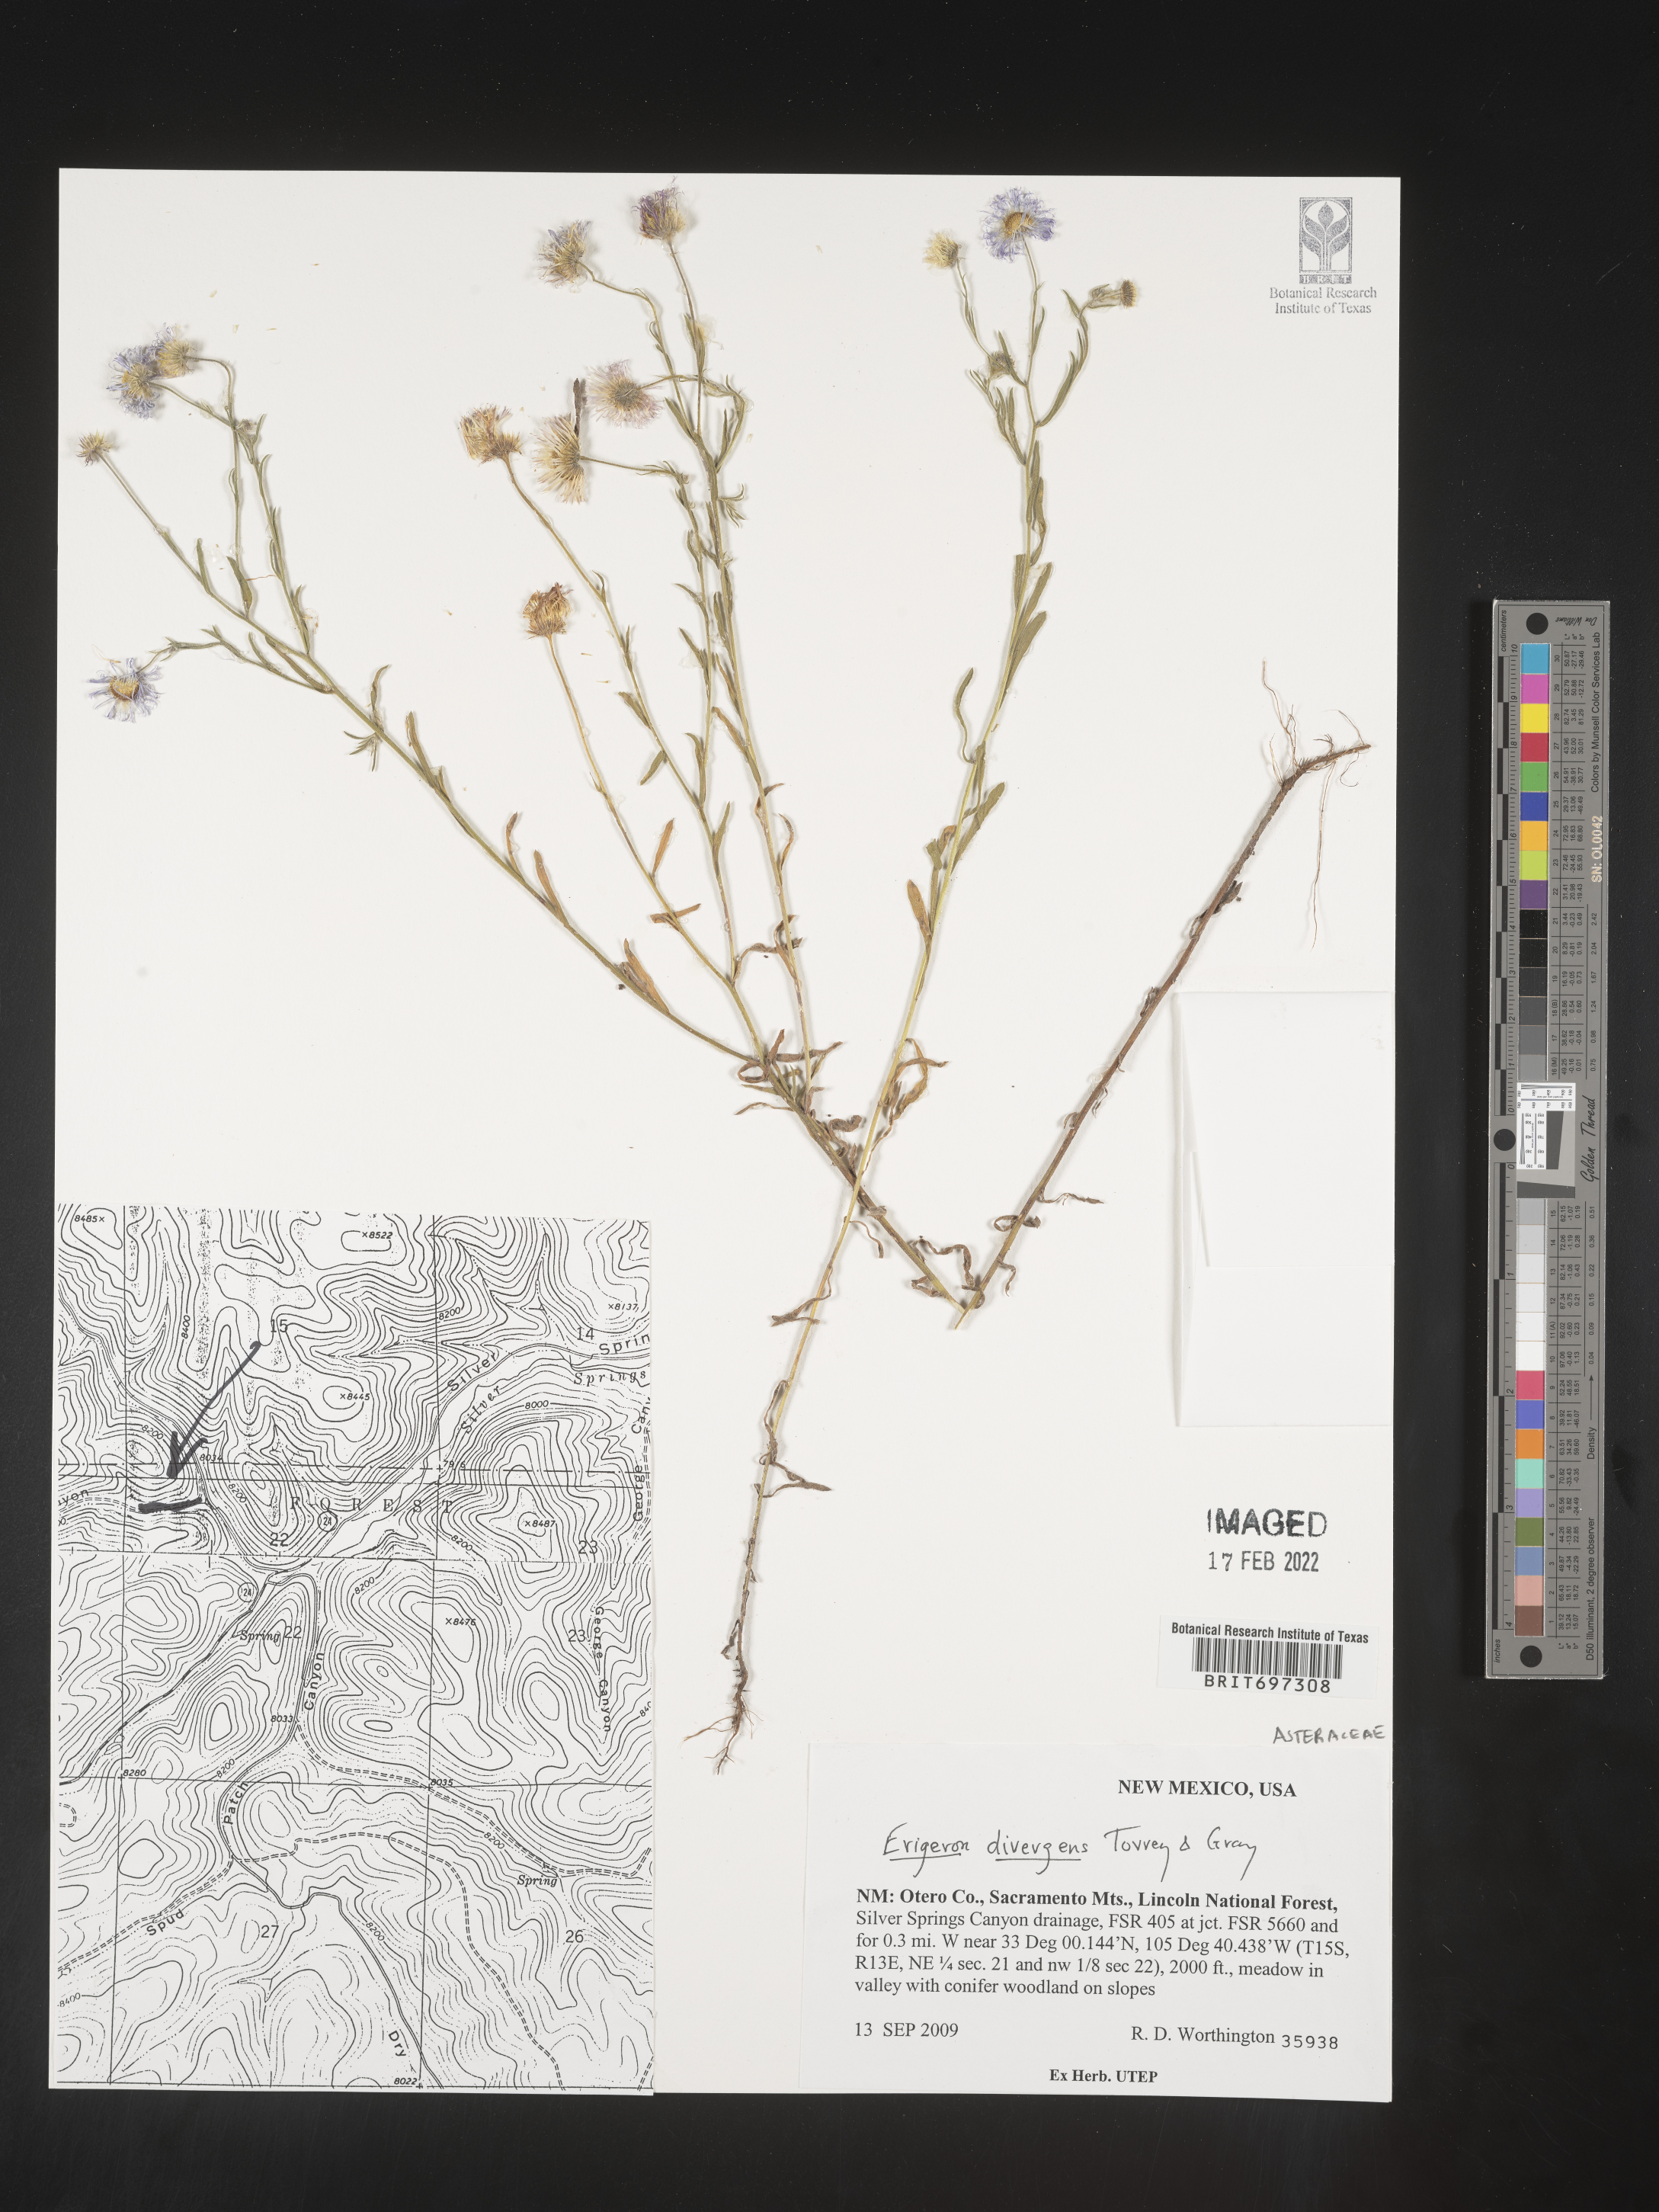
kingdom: Plantae
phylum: Tracheophyta
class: Magnoliopsida
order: Asterales
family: Asteraceae
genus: Erigeron
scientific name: Erigeron divergens
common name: Diffuse fleabane
